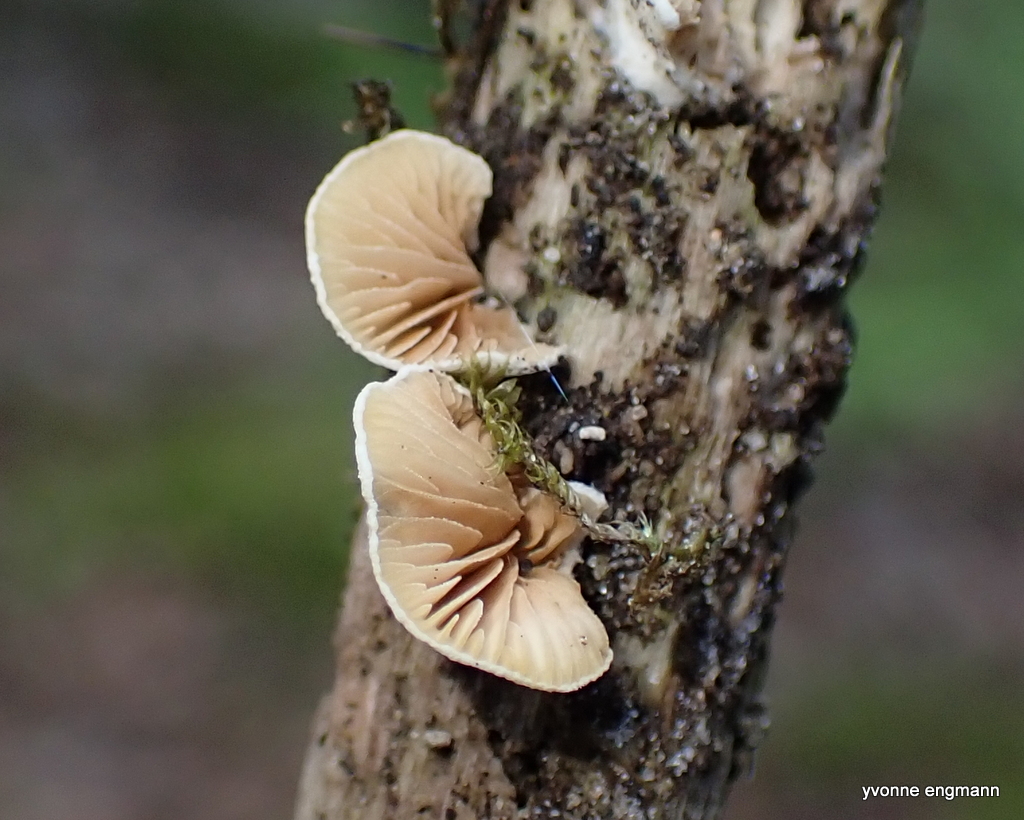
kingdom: Fungi
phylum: Basidiomycota
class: Agaricomycetes
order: Agaricales
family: Crepidotaceae
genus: Crepidotus
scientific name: Crepidotus
